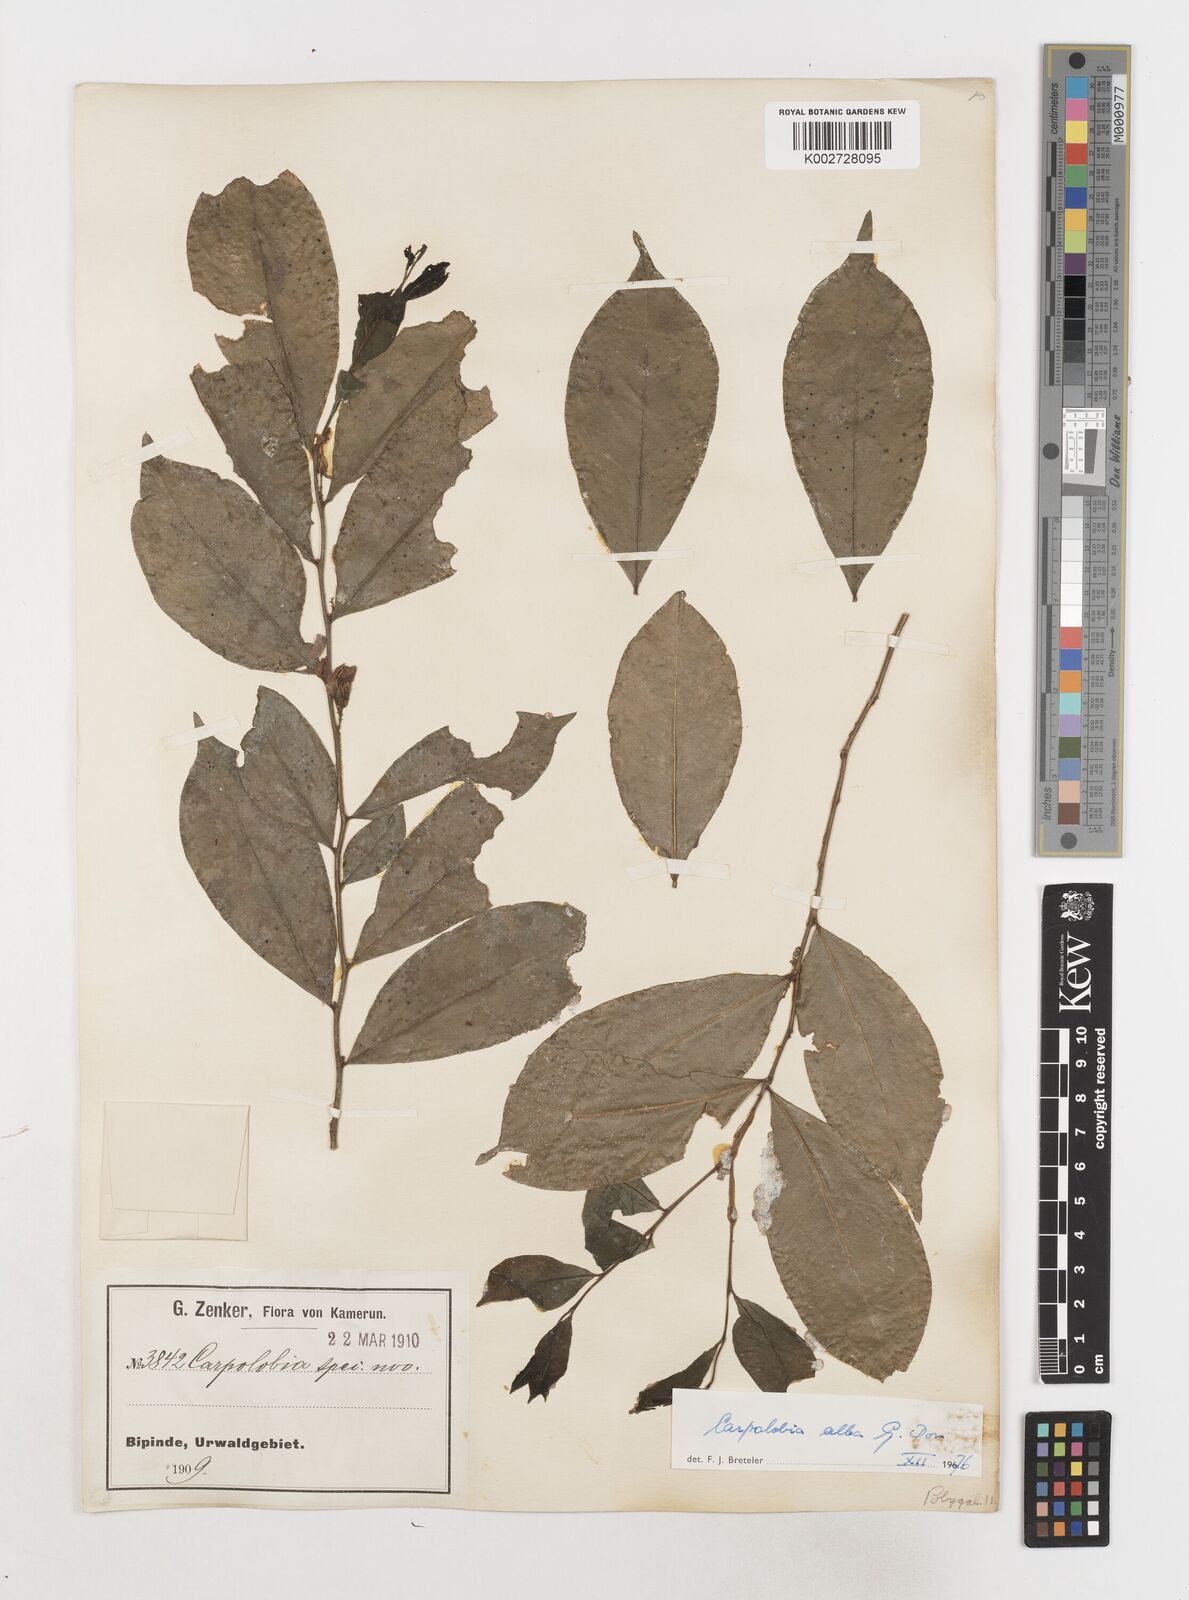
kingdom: Plantae
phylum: Tracheophyta
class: Magnoliopsida
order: Fabales
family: Polygalaceae
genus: Carpolobia
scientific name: Carpolobia alba
